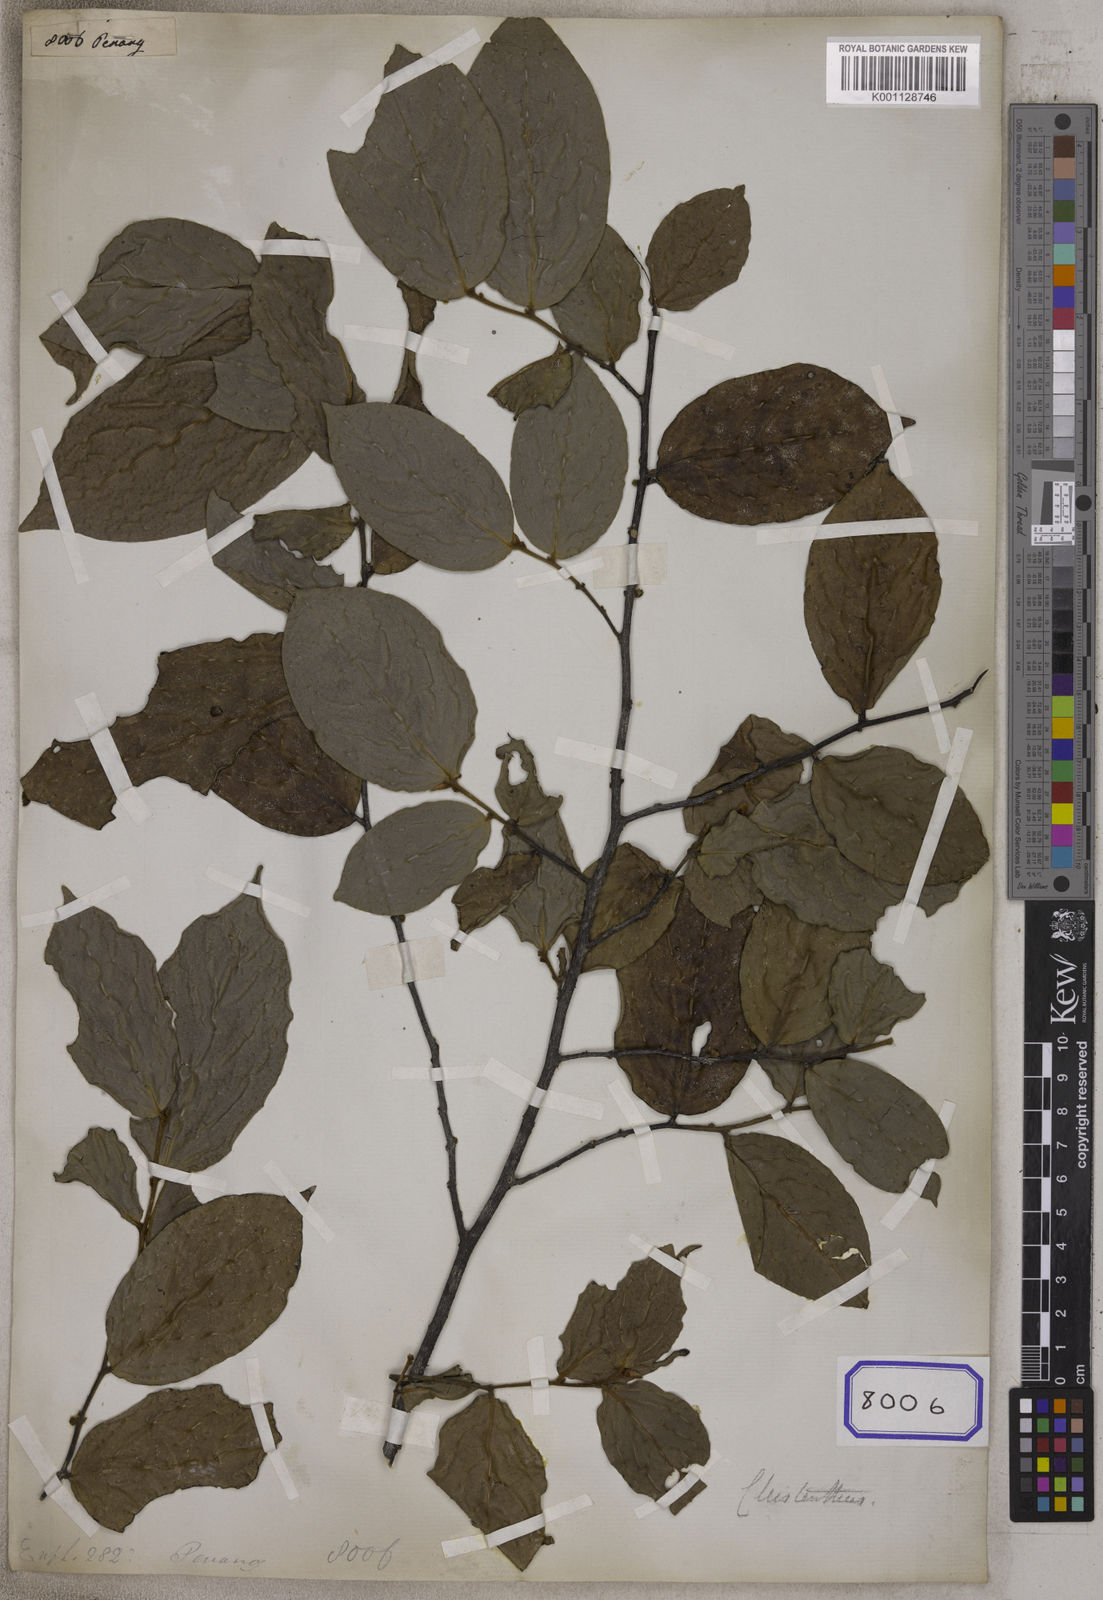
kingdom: Plantae
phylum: Tracheophyta
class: Magnoliopsida
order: Malpighiales
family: Euphorbiaceae
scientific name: Euphorbiaceae
